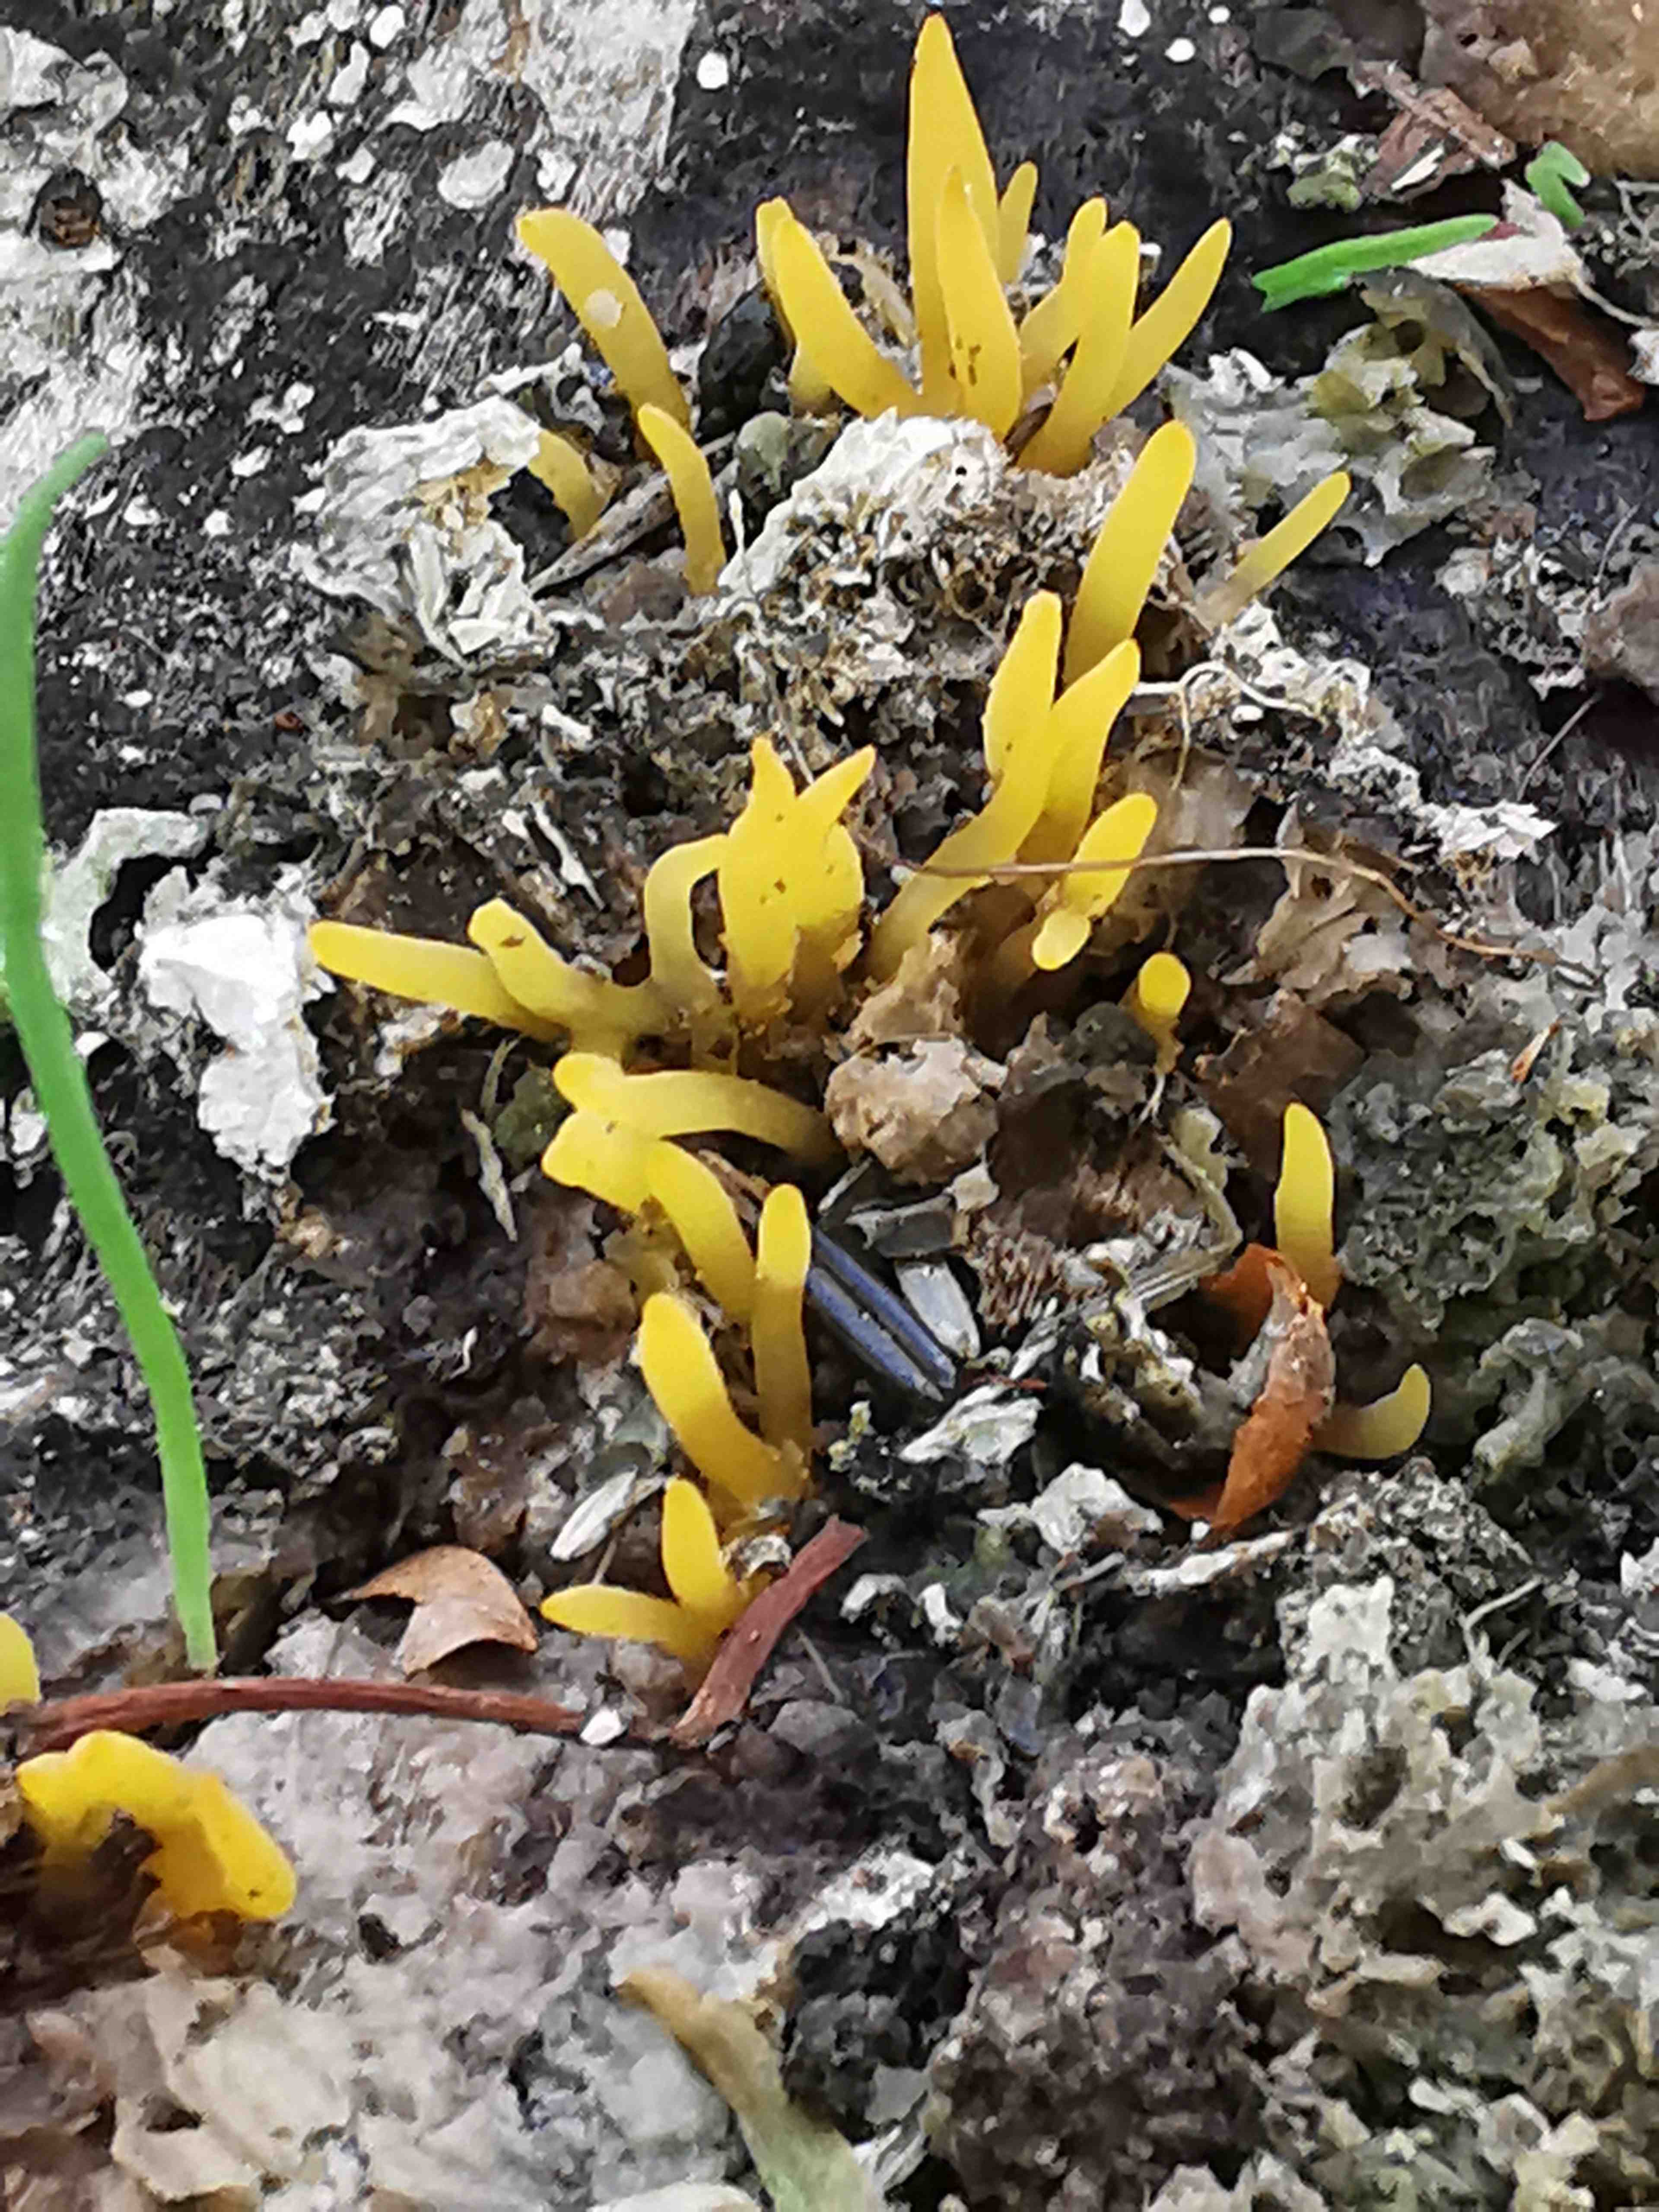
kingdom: Fungi
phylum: Basidiomycota
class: Dacrymycetes
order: Dacrymycetales
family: Dacrymycetaceae
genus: Calocera
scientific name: Calocera cornea
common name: liden guldgaffel
